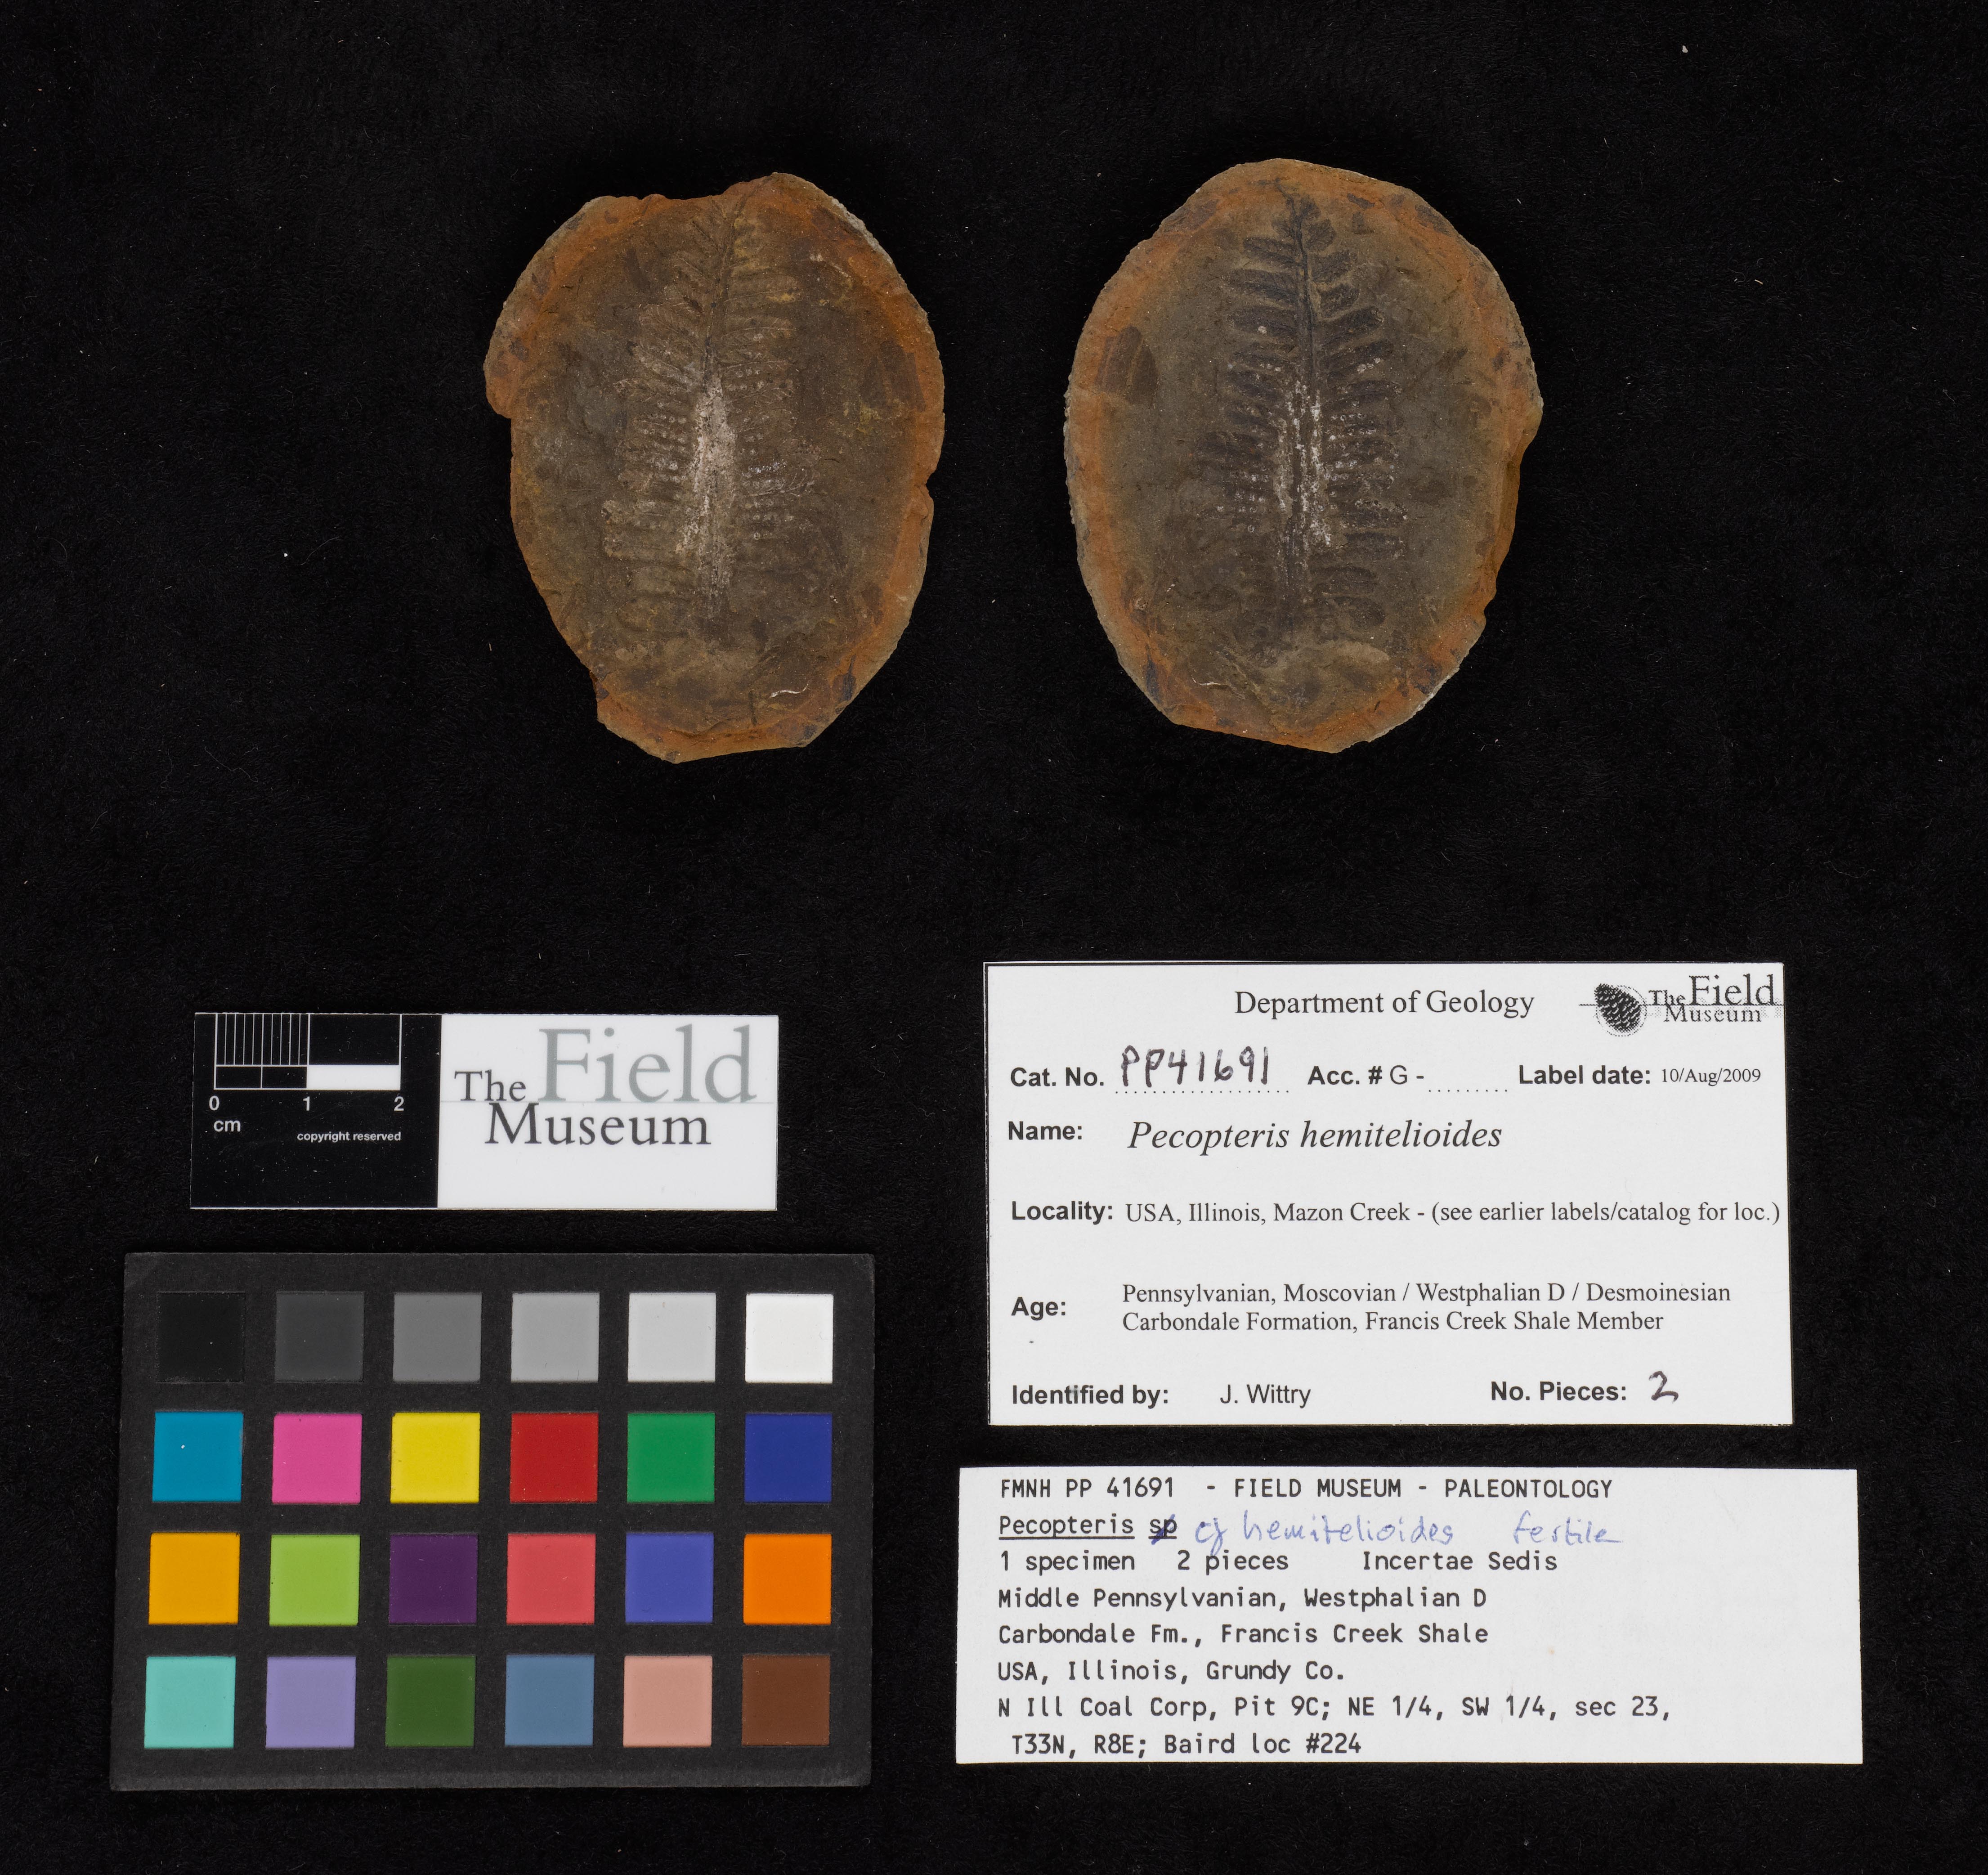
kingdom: Plantae
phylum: Tracheophyta
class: Polypodiopsida
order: Marattiales
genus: Cyathocarpus
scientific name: Cyathocarpus
